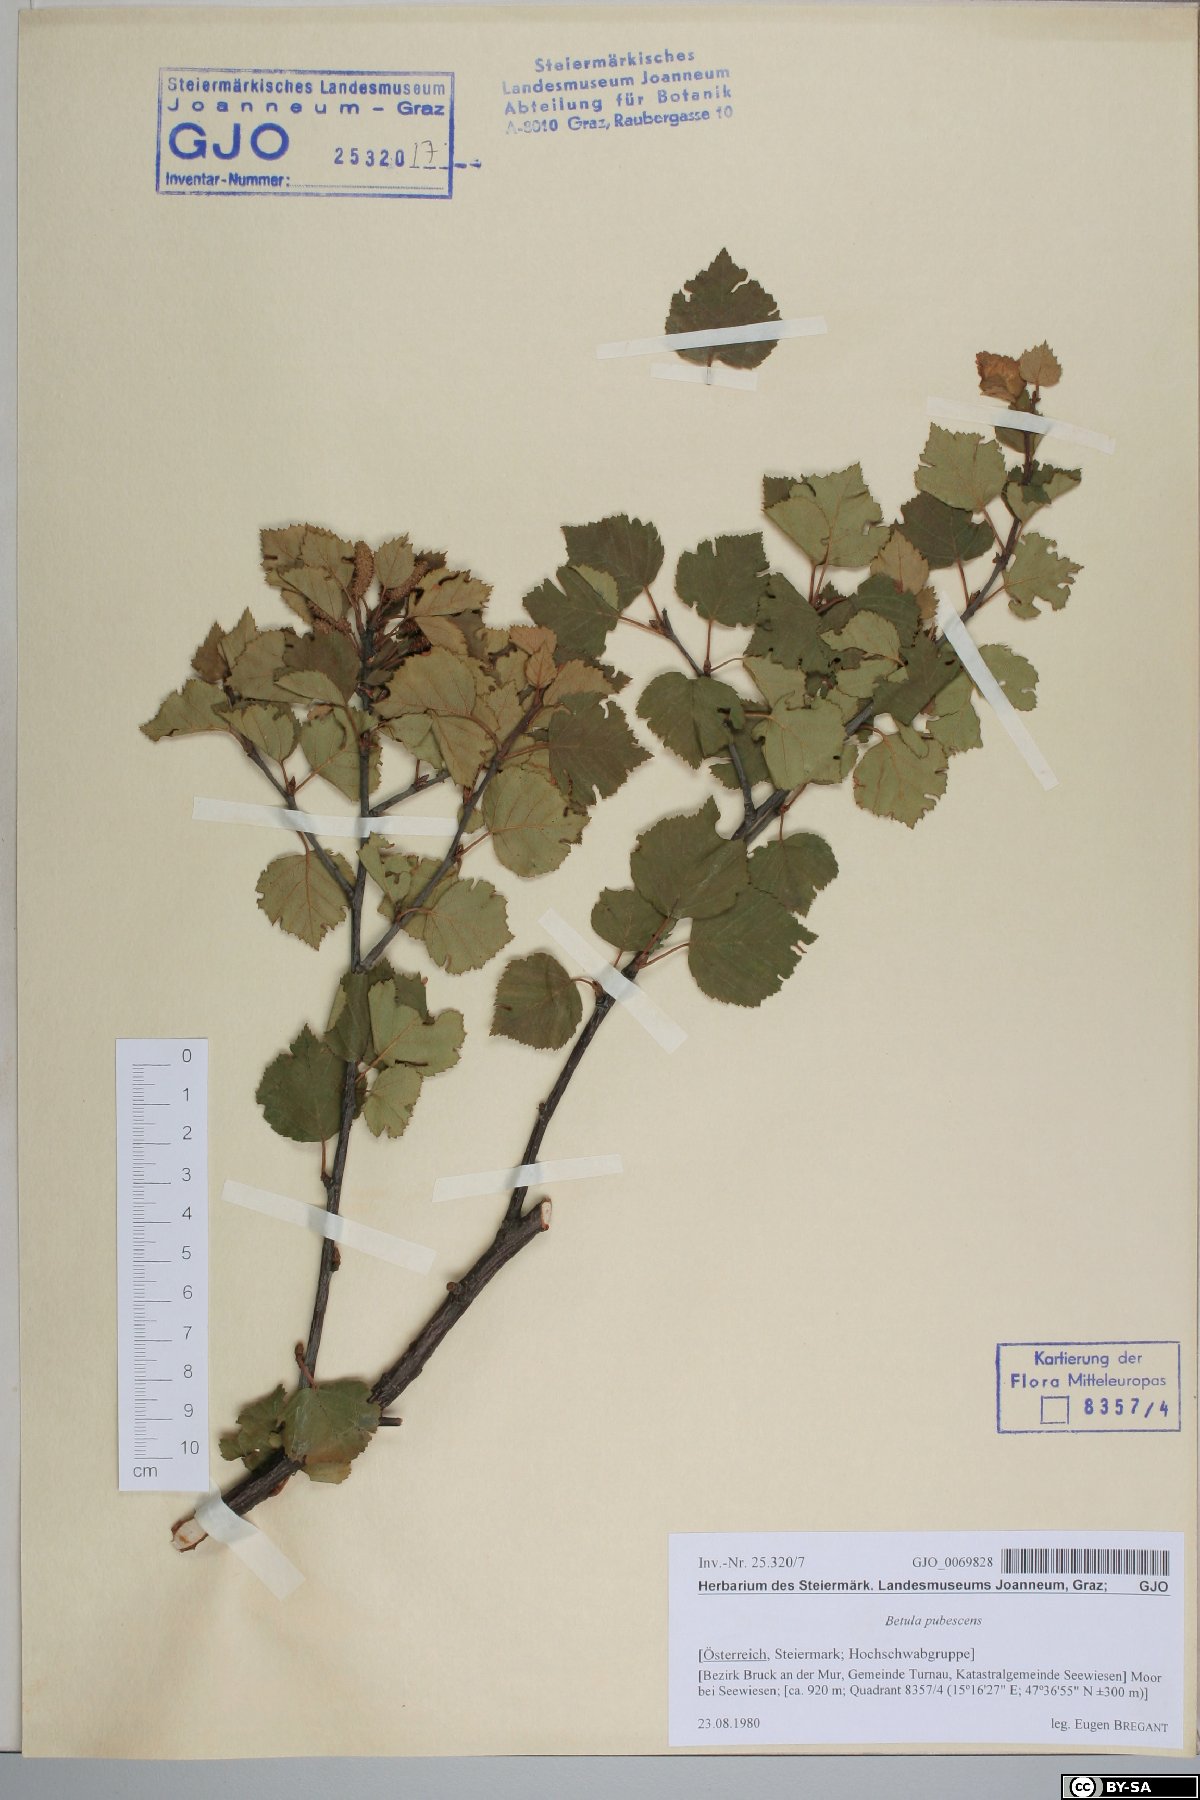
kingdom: Plantae
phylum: Tracheophyta
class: Magnoliopsida
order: Fagales
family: Betulaceae
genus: Betula
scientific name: Betula pubescens
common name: Downy birch
